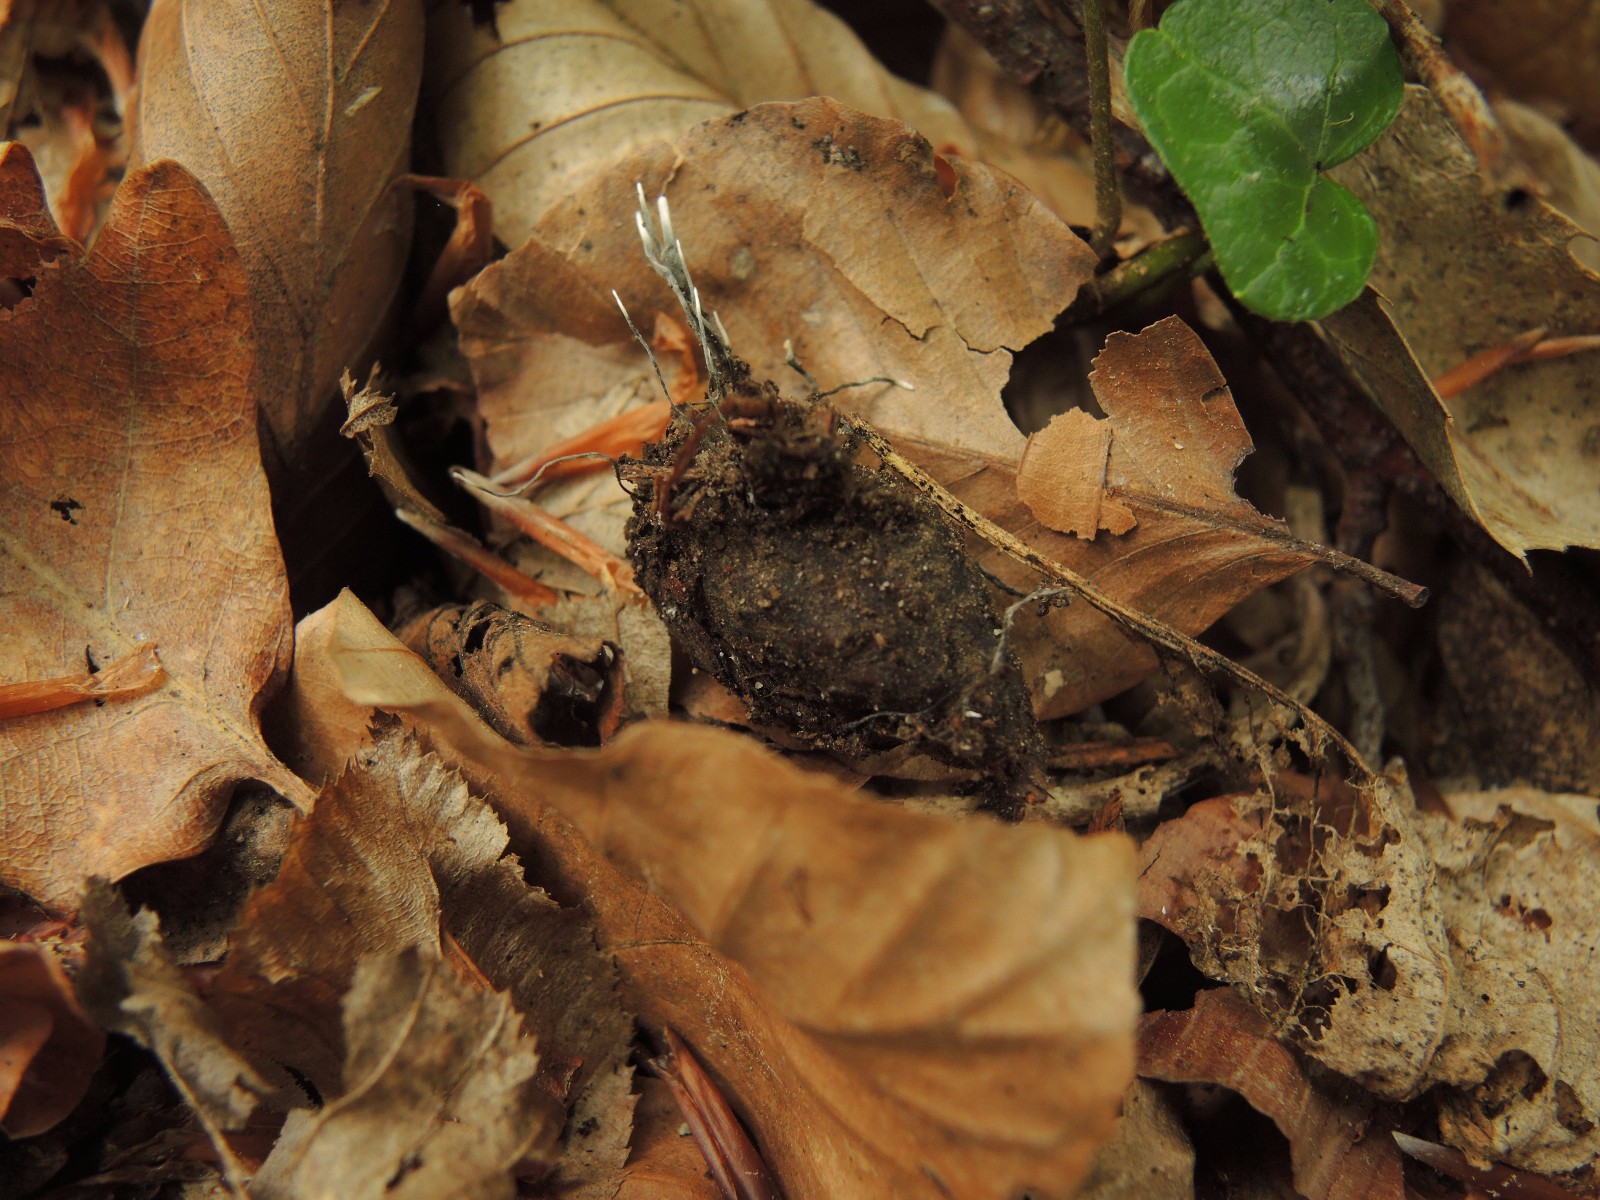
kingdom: Fungi
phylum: Ascomycota
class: Sordariomycetes
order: Xylariales
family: Xylariaceae
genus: Xylaria
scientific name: Xylaria carpophila
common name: bogskål-stødsvamp
